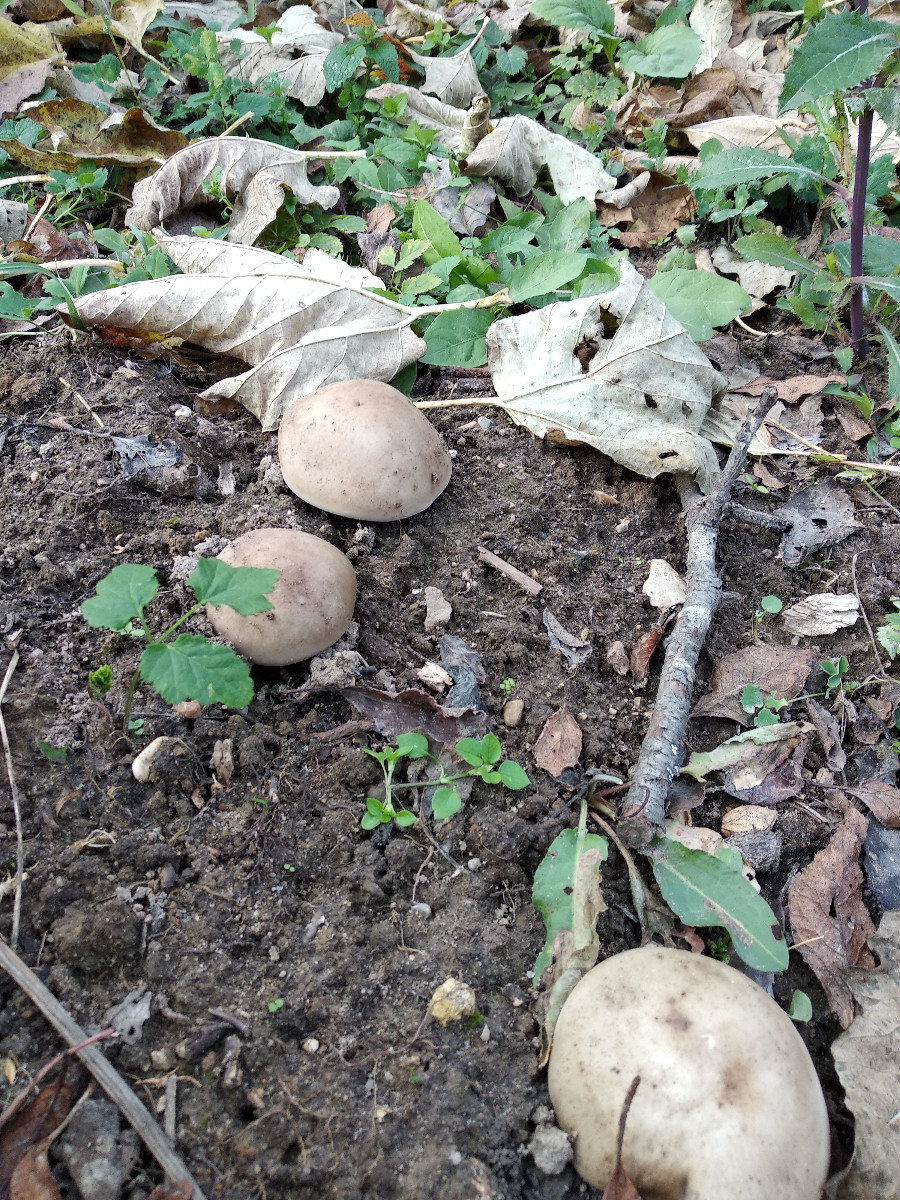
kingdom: Fungi
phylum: Basidiomycota
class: Agaricomycetes
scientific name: Agaricomycetes
